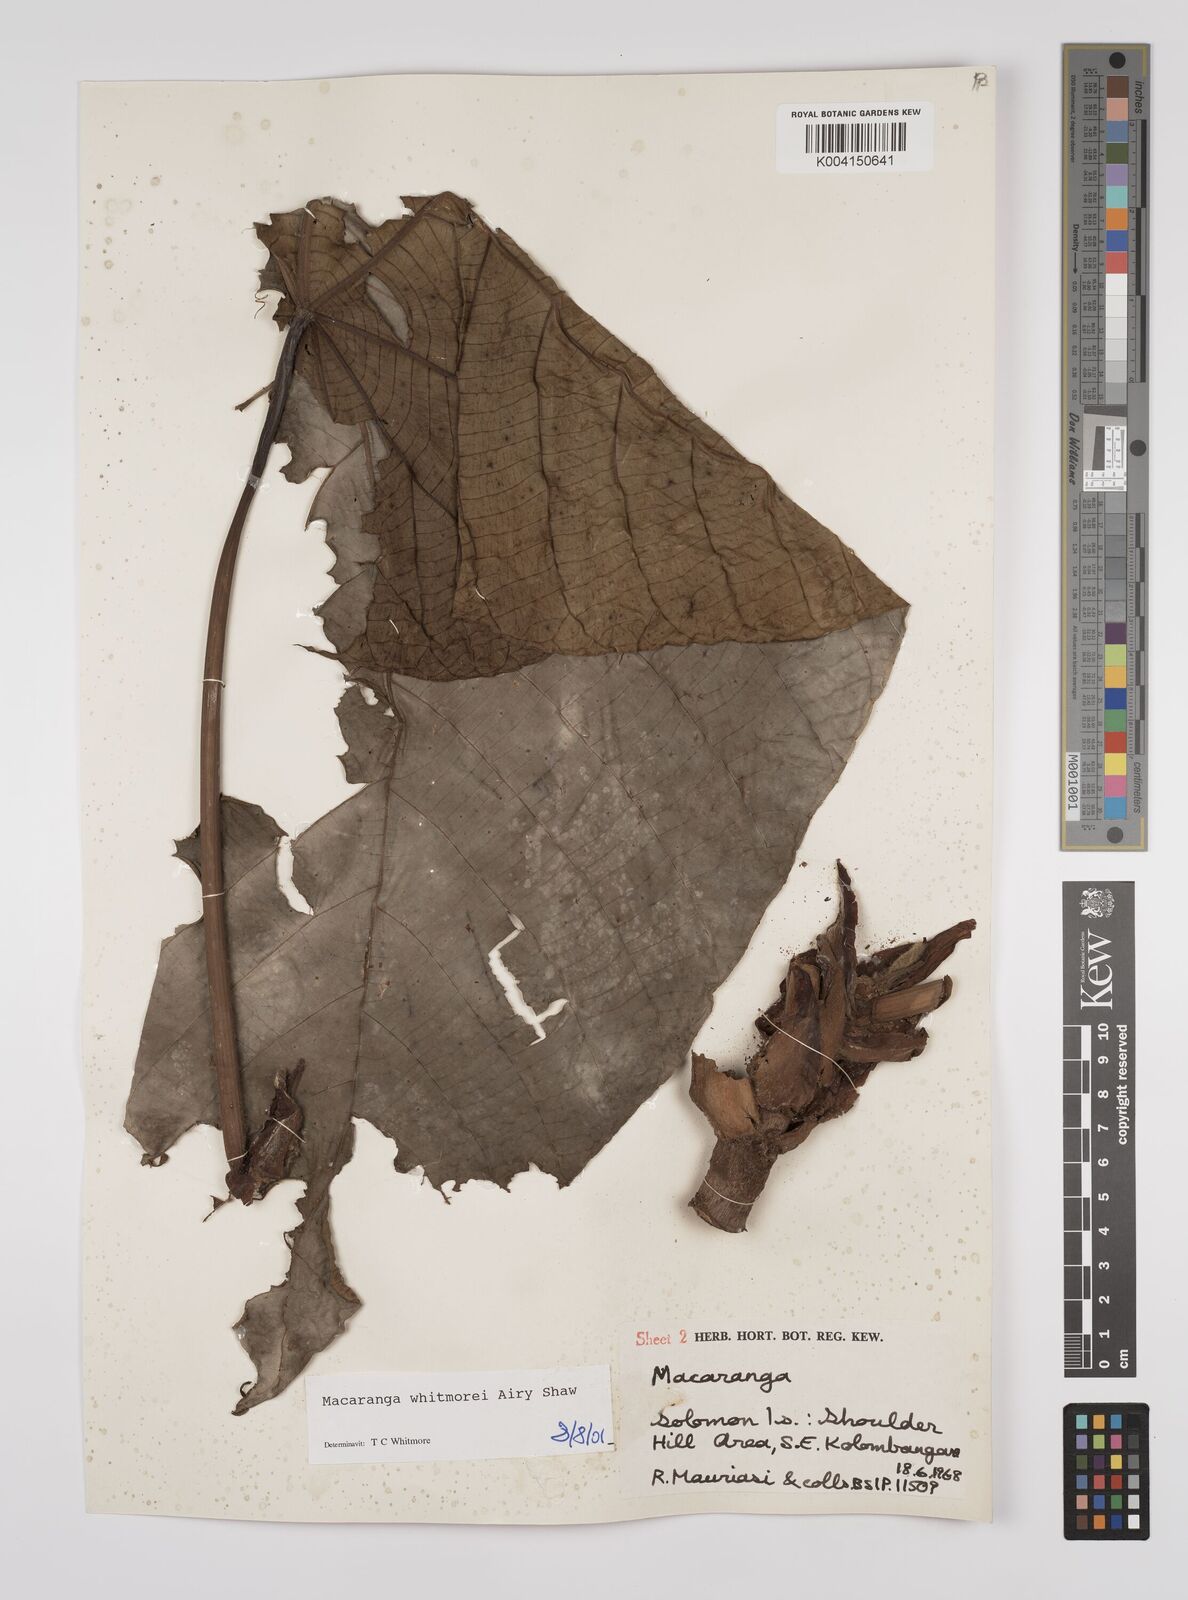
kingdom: Plantae
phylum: Tracheophyta
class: Magnoliopsida
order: Malpighiales
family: Euphorbiaceae
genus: Macaranga
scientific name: Macaranga whitmorei
